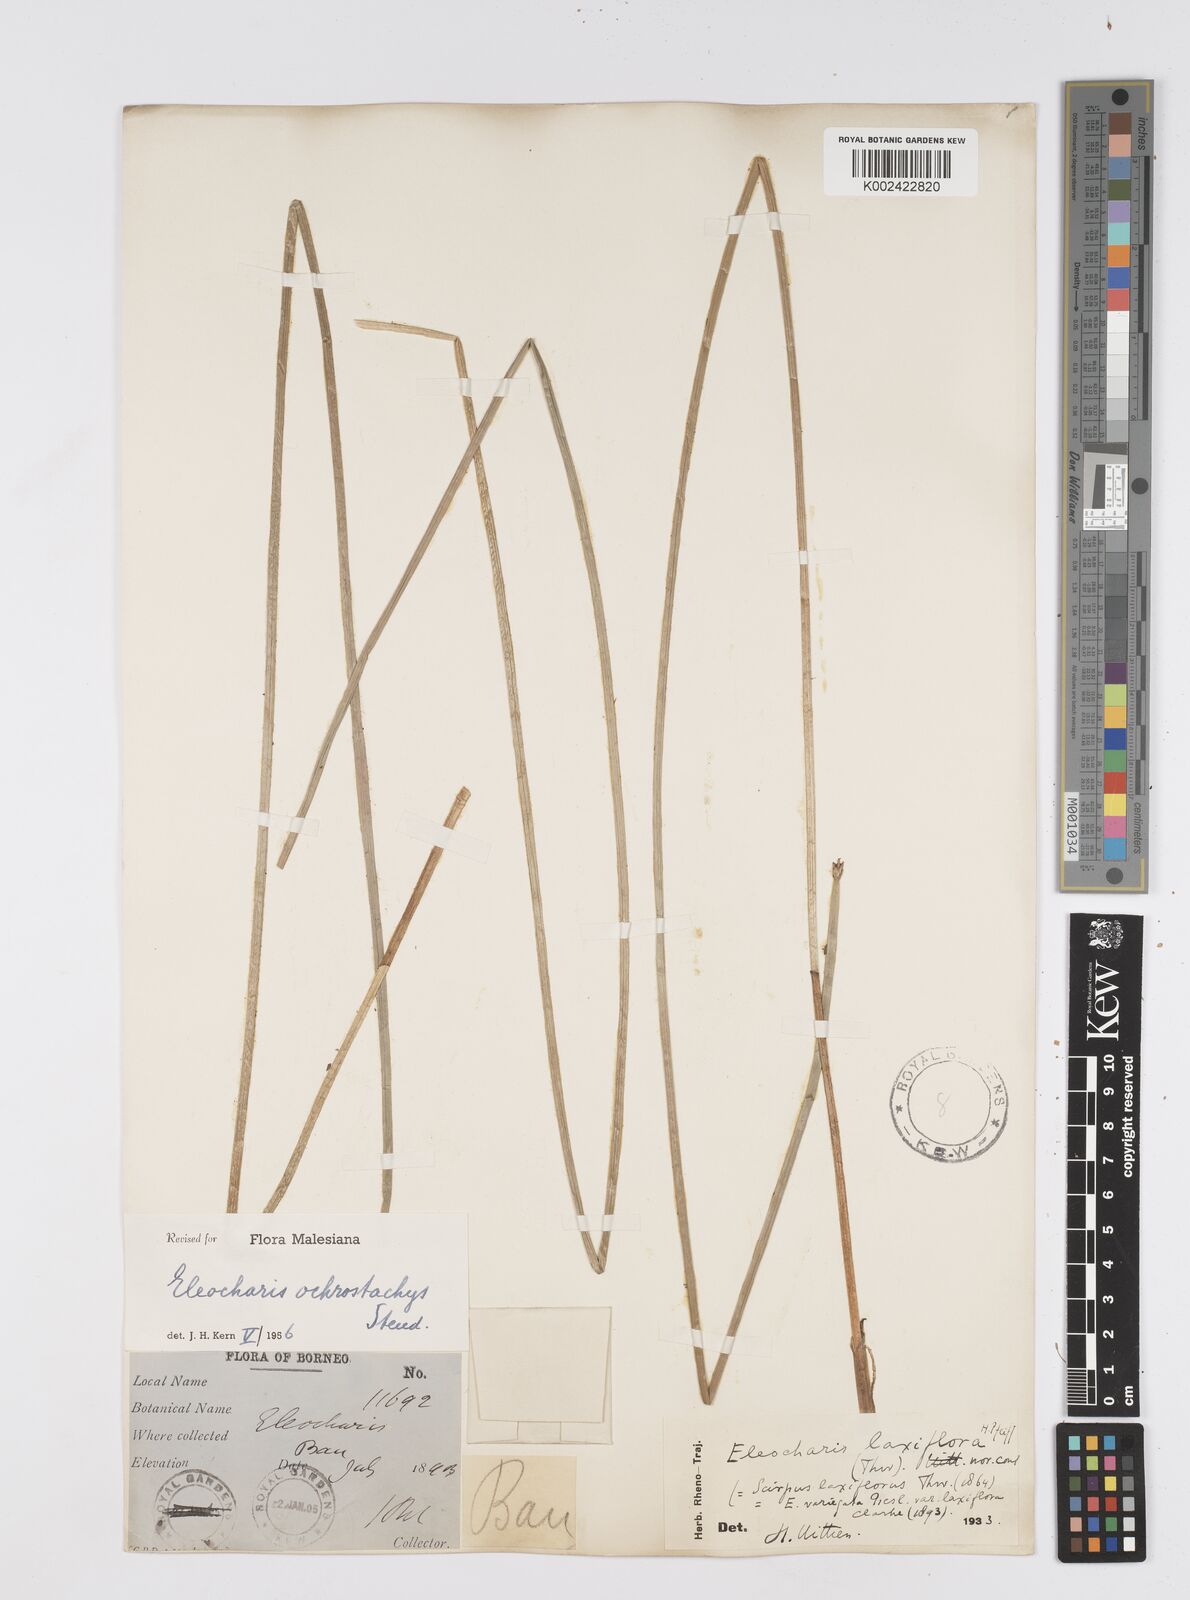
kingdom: Plantae
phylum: Tracheophyta
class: Liliopsida
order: Poales
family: Cyperaceae
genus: Eleocharis
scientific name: Eleocharis ochrostachys
